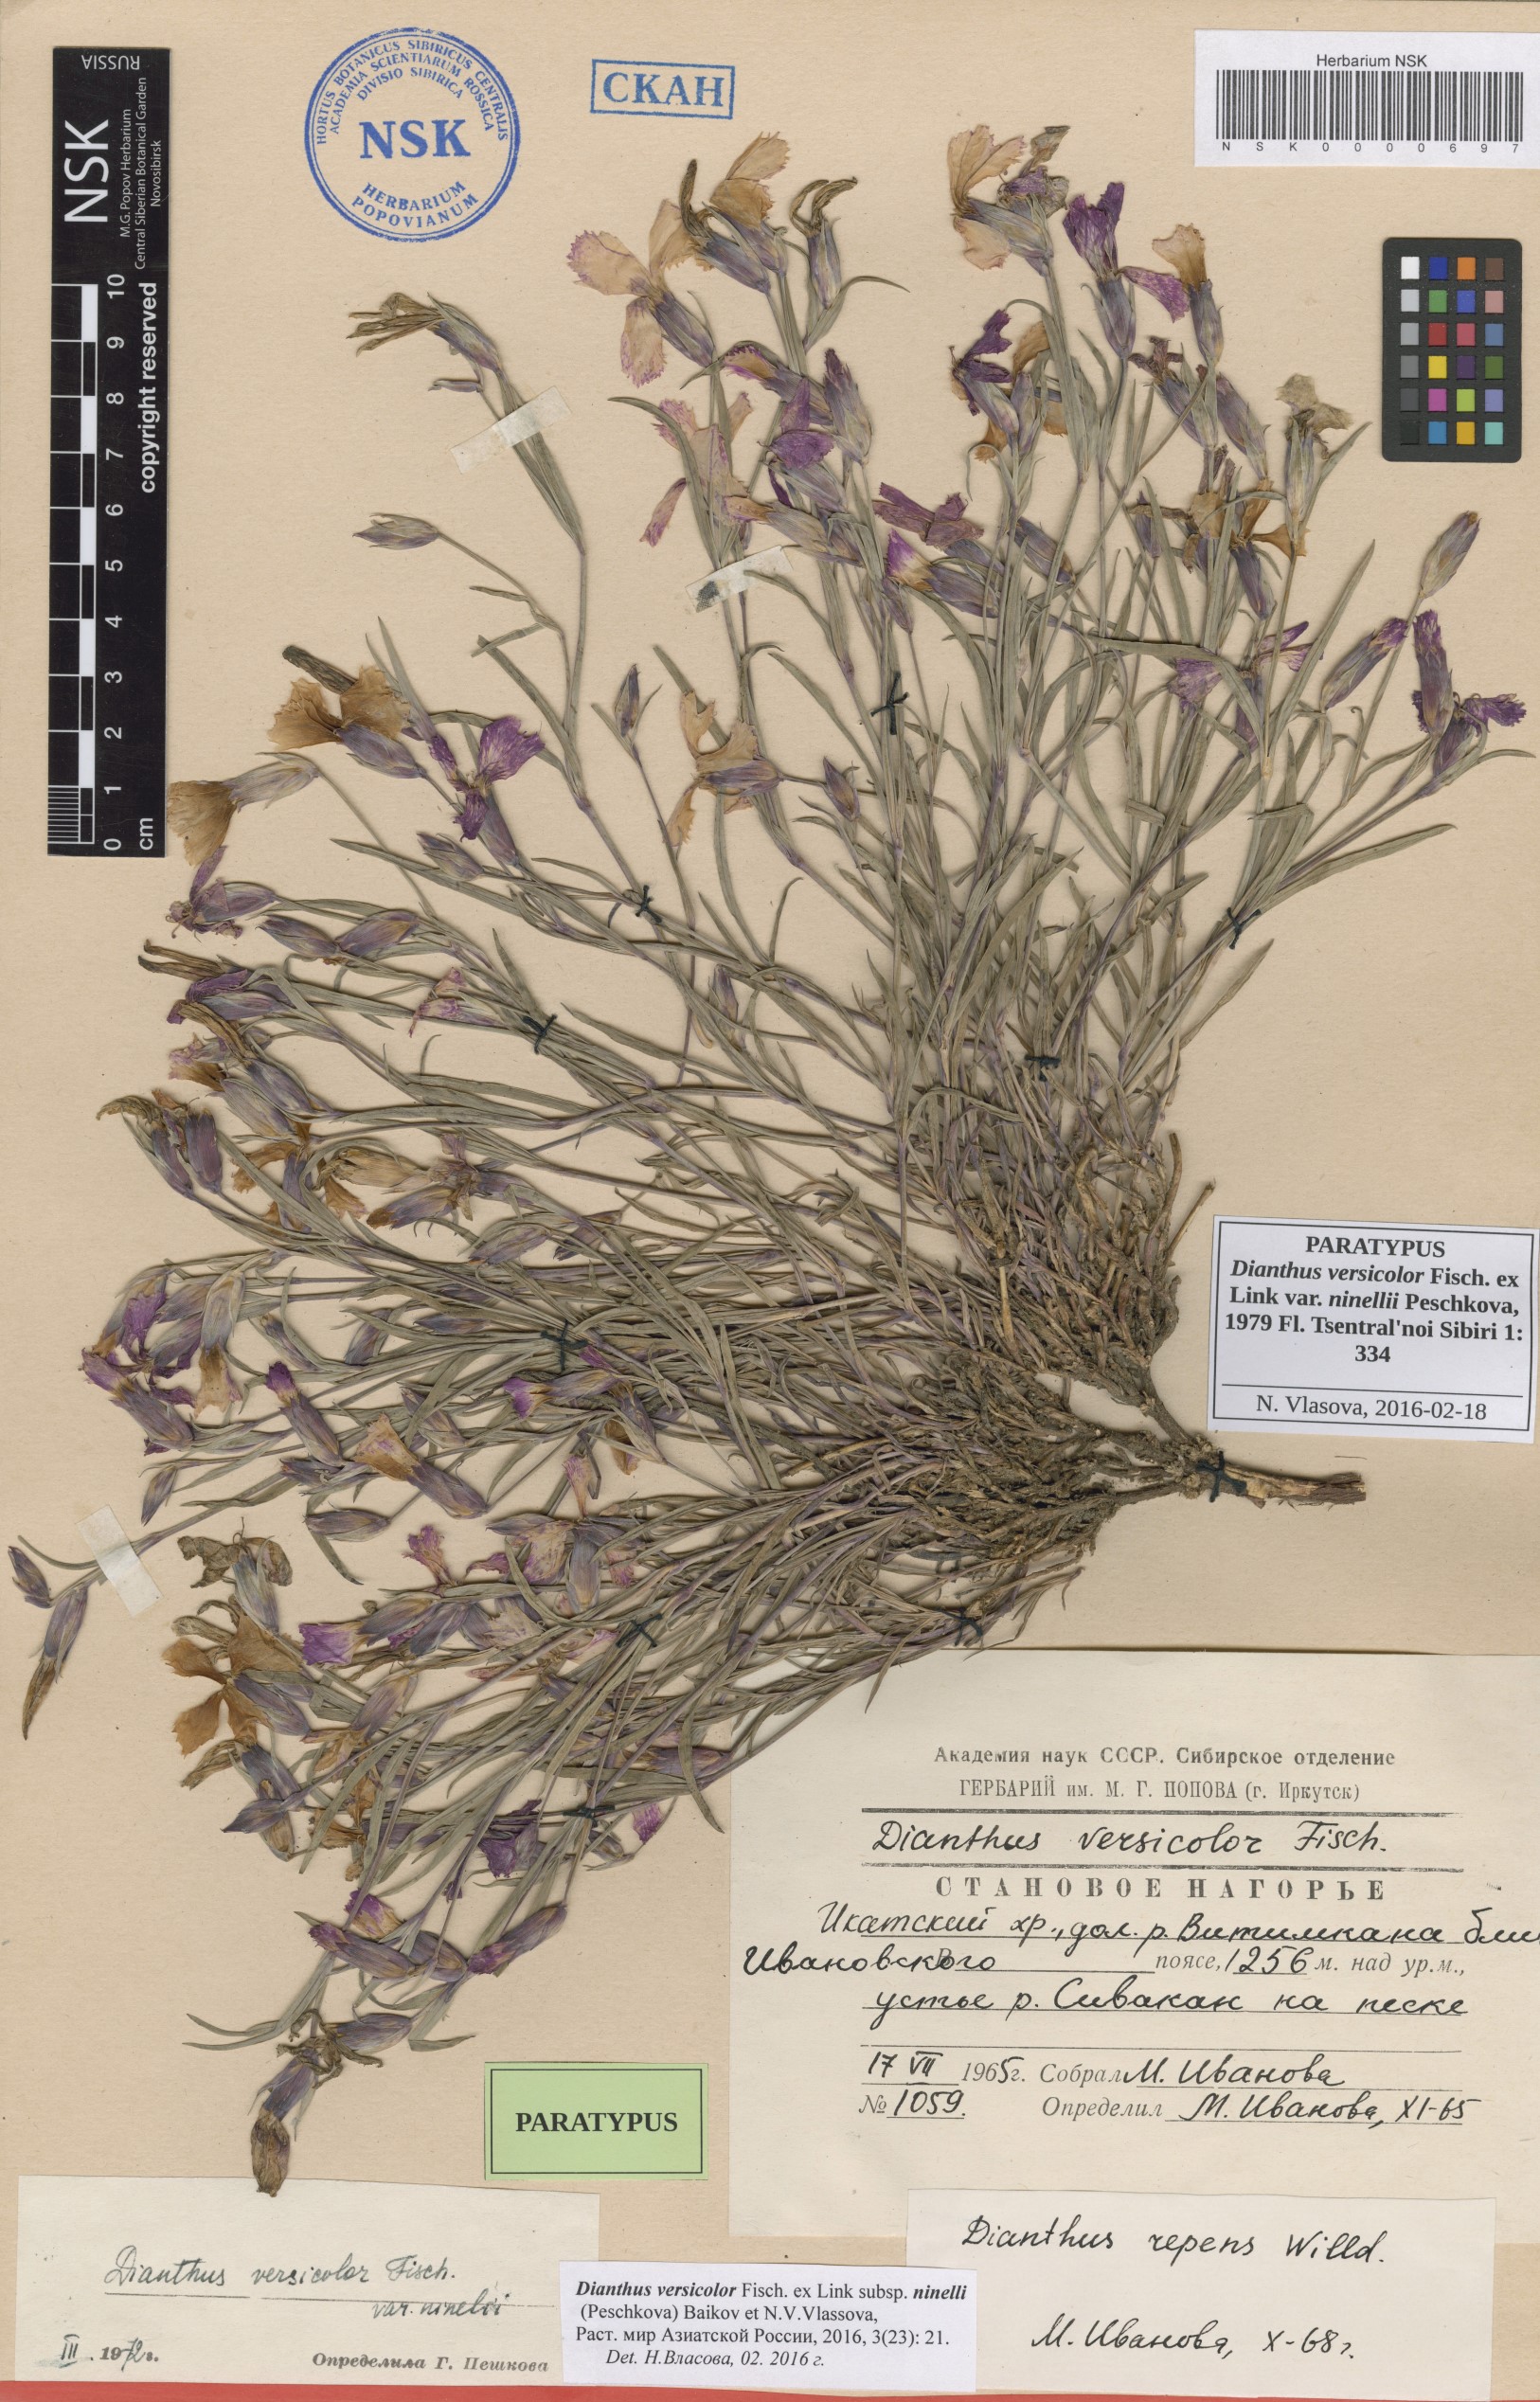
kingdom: Plantae
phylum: Tracheophyta
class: Magnoliopsida
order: Caryophyllales
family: Caryophyllaceae
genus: Dianthus
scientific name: Dianthus chinensis
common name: Rainbow pink
